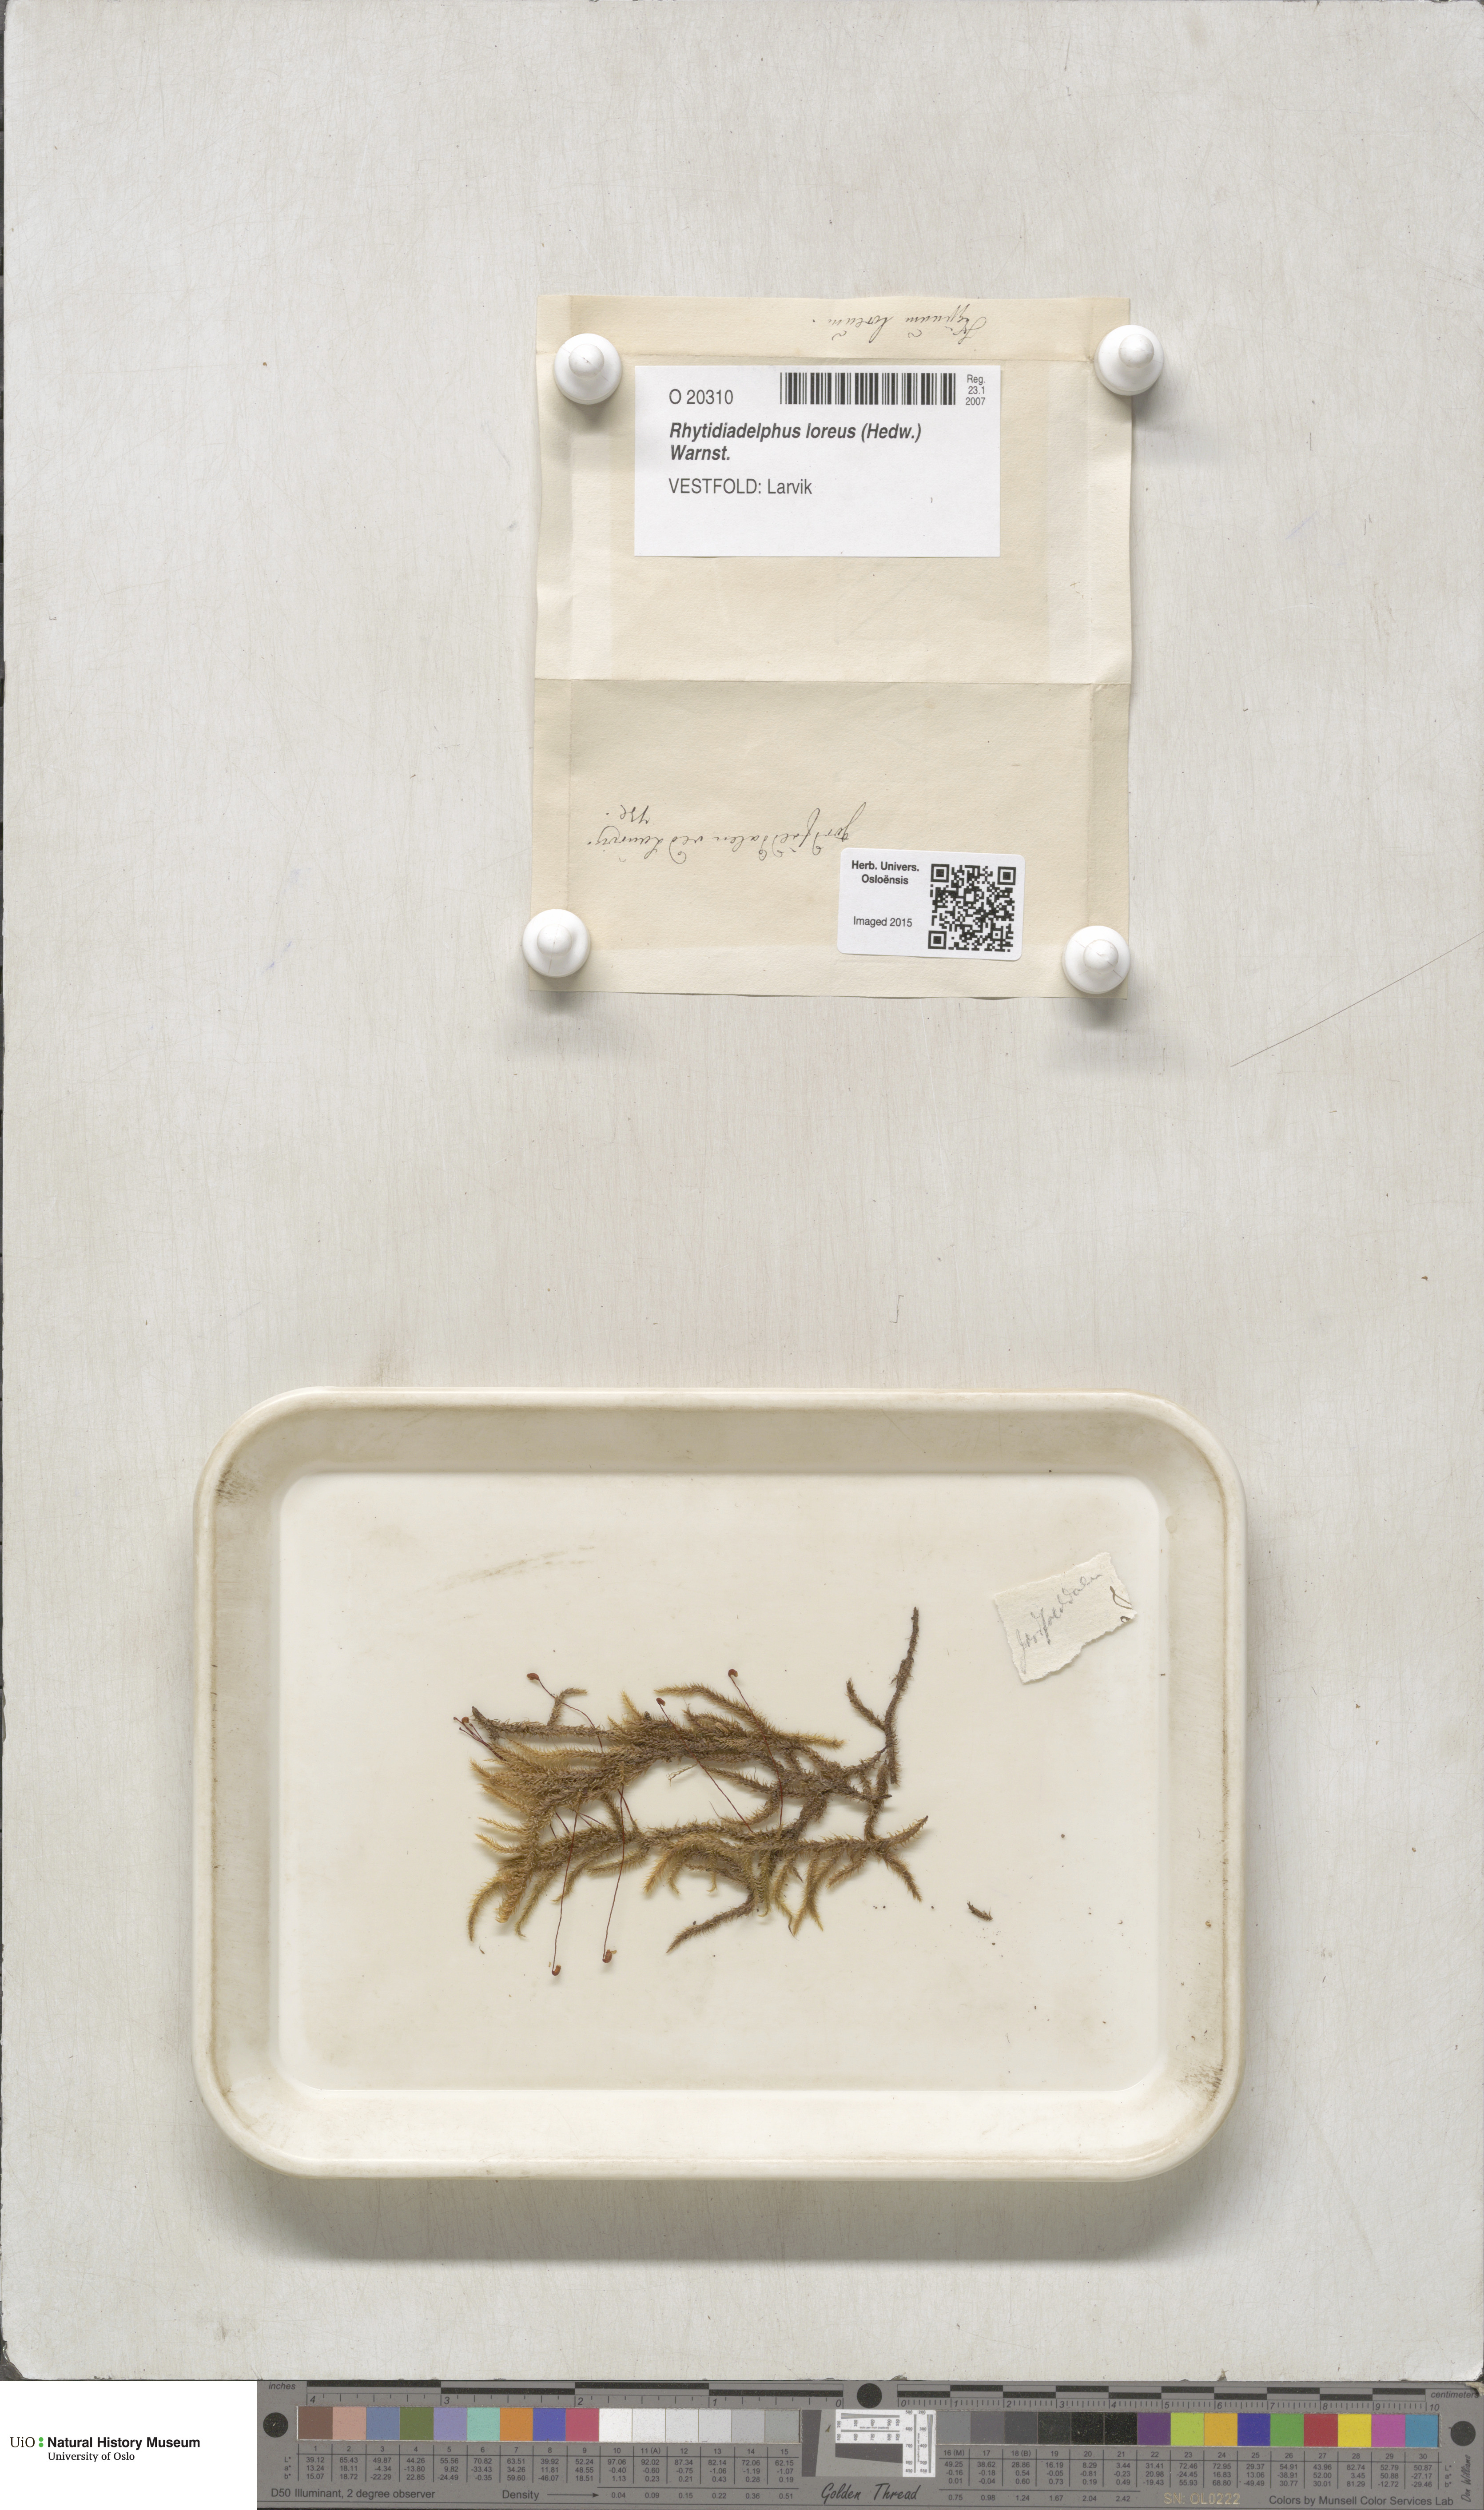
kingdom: Plantae
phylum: Bryophyta
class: Bryopsida
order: Hypnales
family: Hylocomiaceae
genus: Rhytidiadelphus
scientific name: Rhytidiadelphus loreus
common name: Lanky moss
